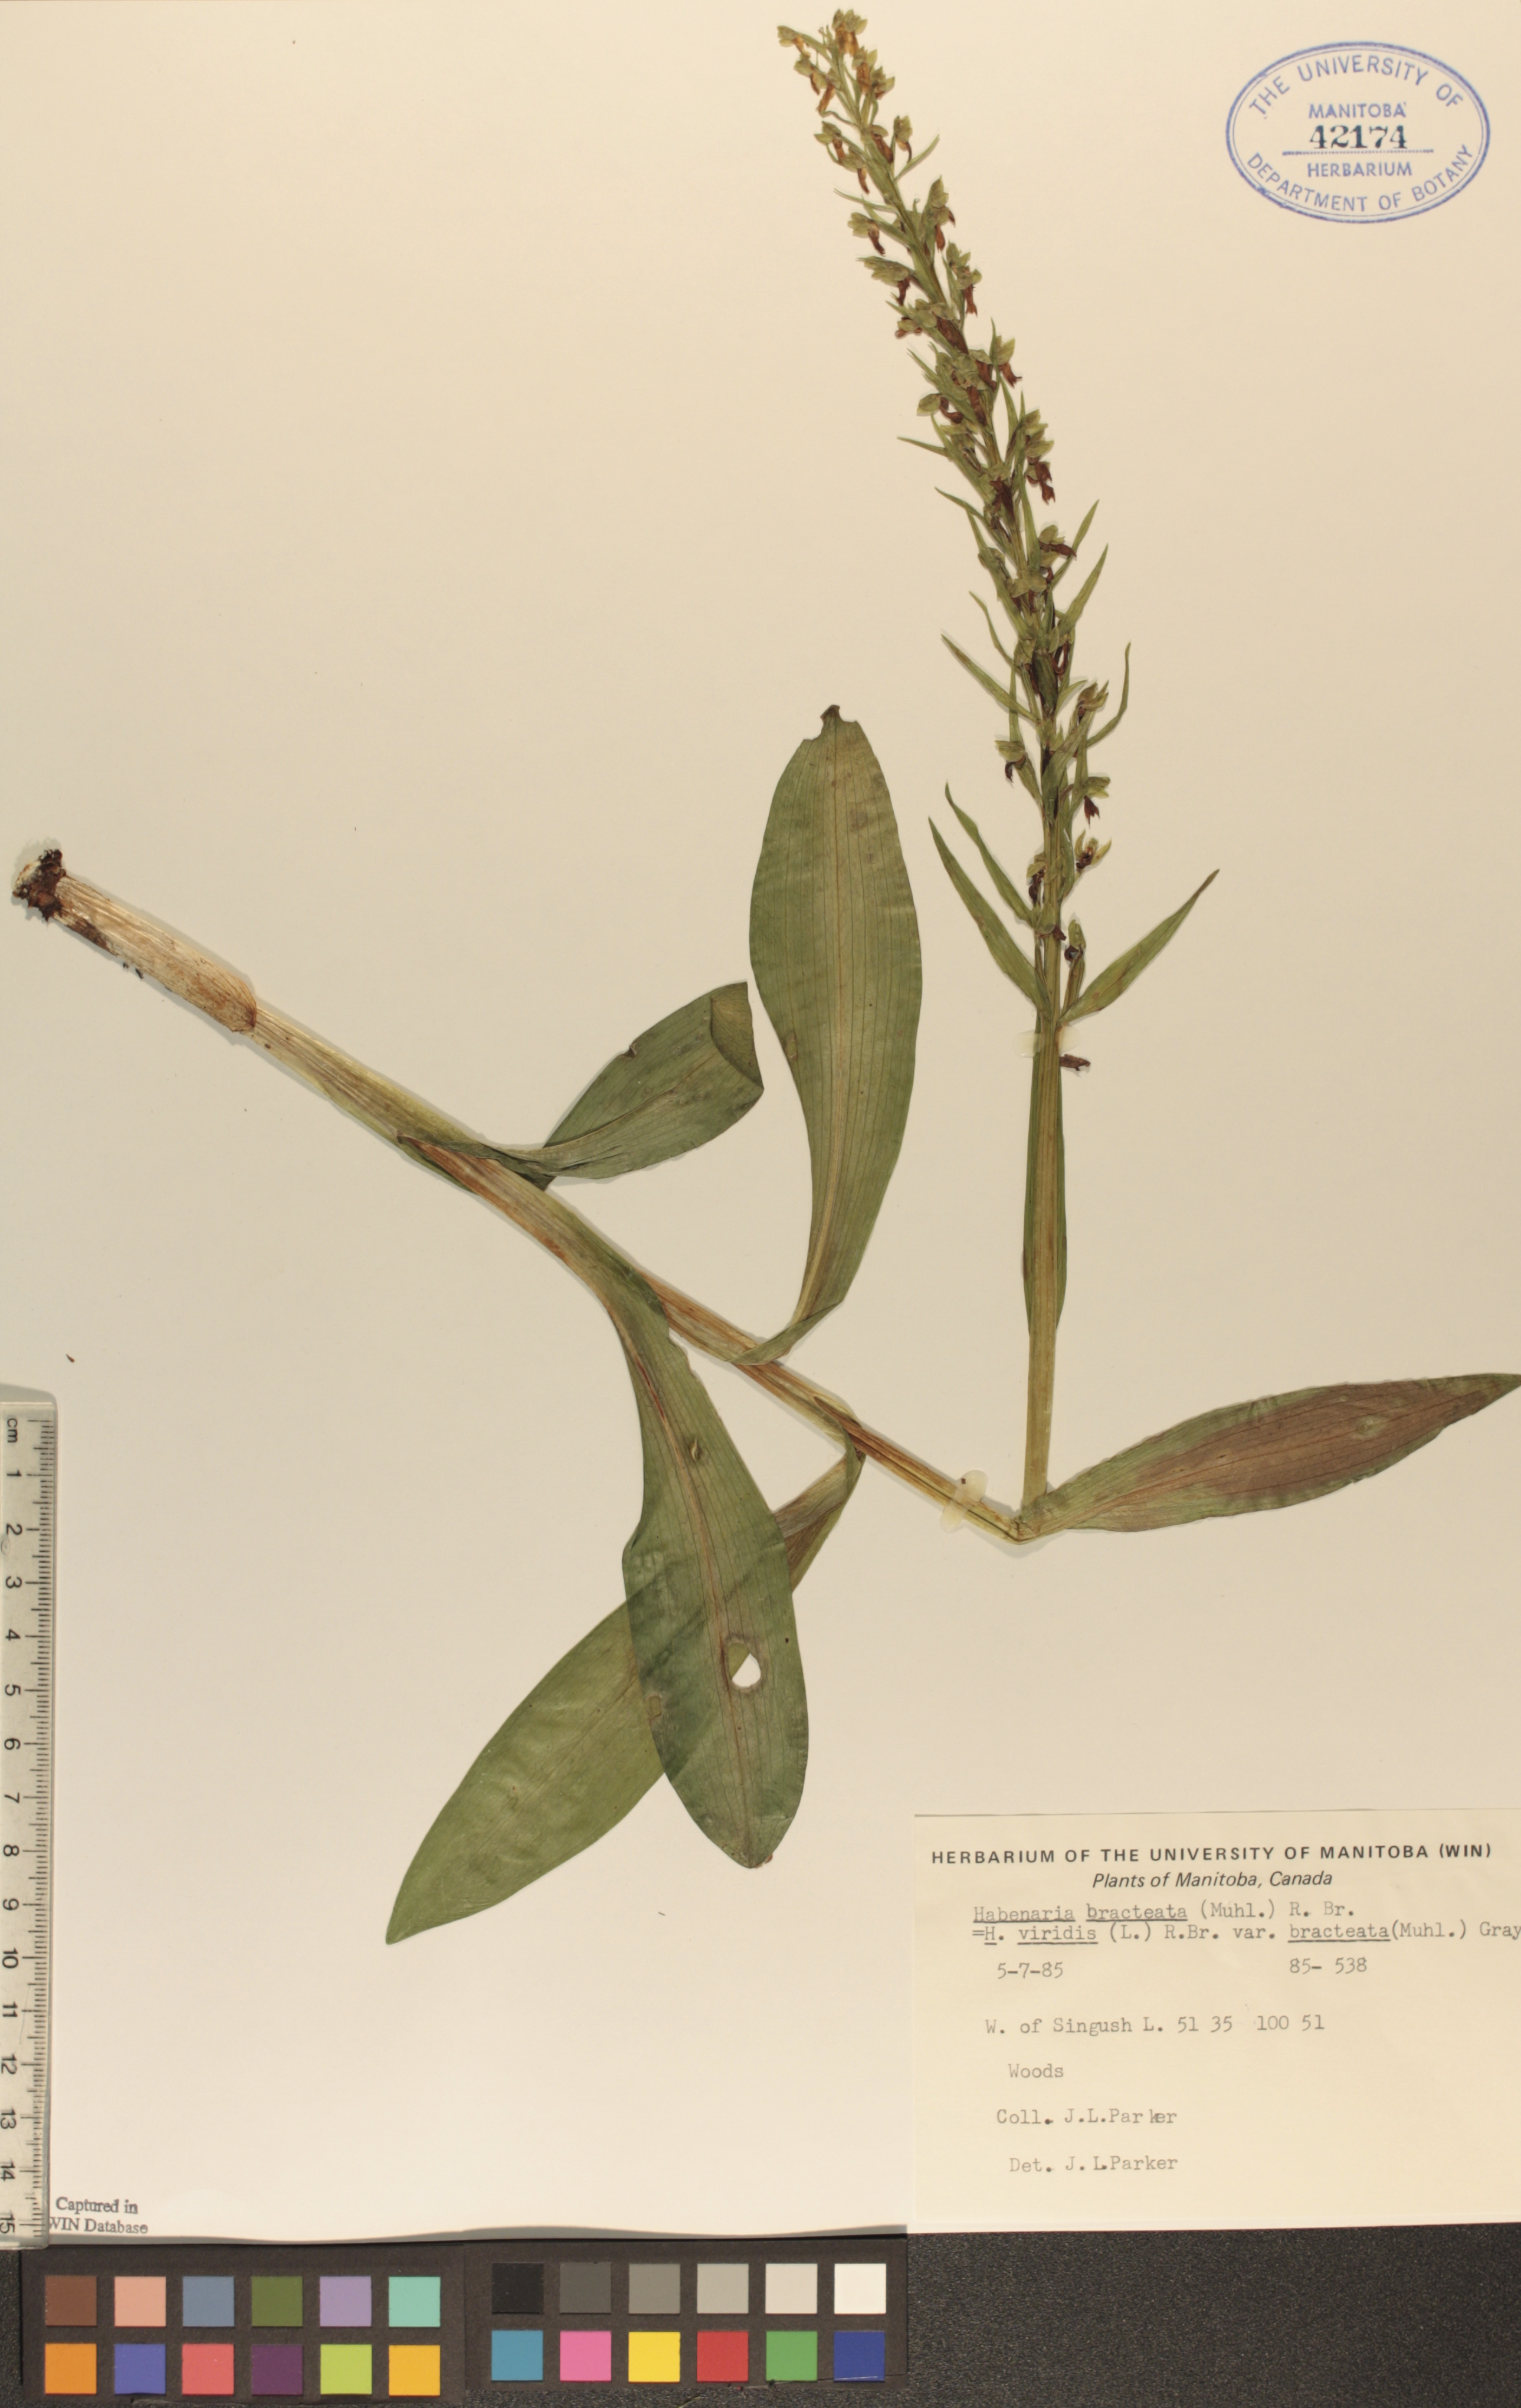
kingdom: Plantae
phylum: Tracheophyta
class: Liliopsida
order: Asparagales
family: Orchidaceae
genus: Dactylorhiza
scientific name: Dactylorhiza viridis
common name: Longbract frog orchid
